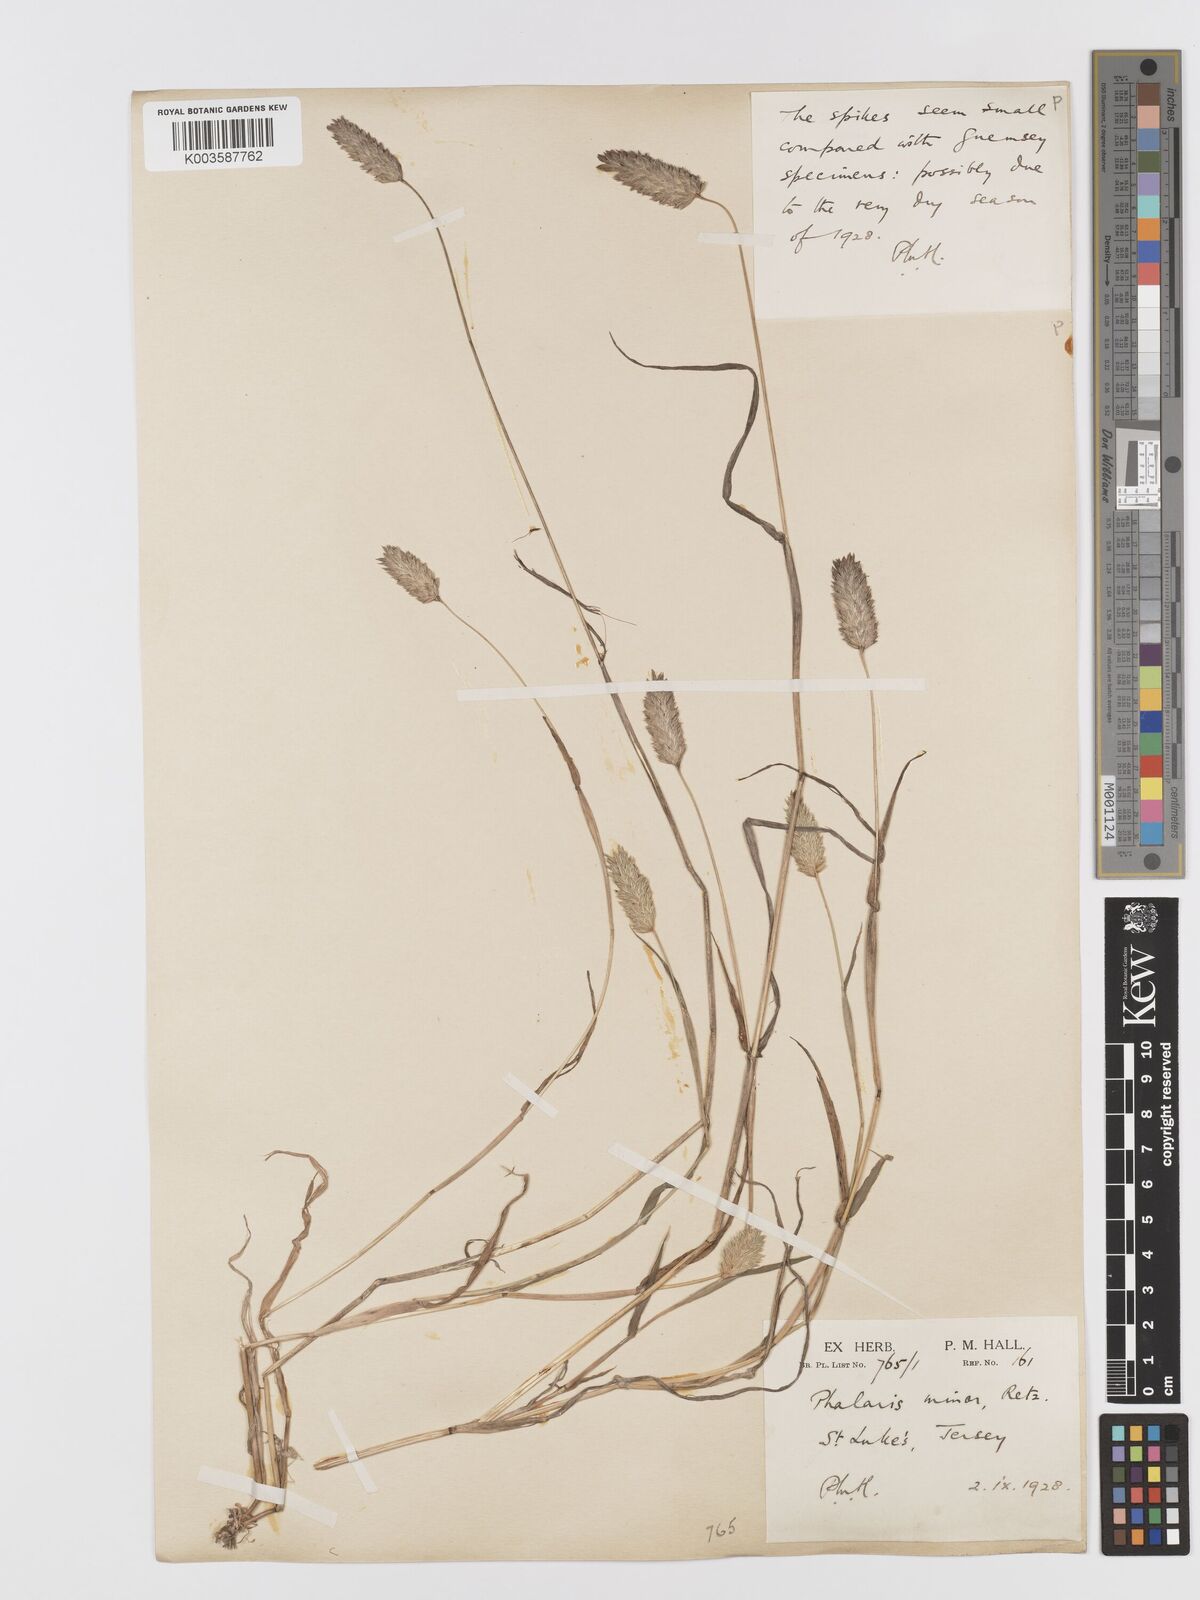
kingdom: Plantae
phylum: Tracheophyta
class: Liliopsida
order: Poales
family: Poaceae
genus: Phalaris
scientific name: Phalaris minor
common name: Littleseed canarygrass
